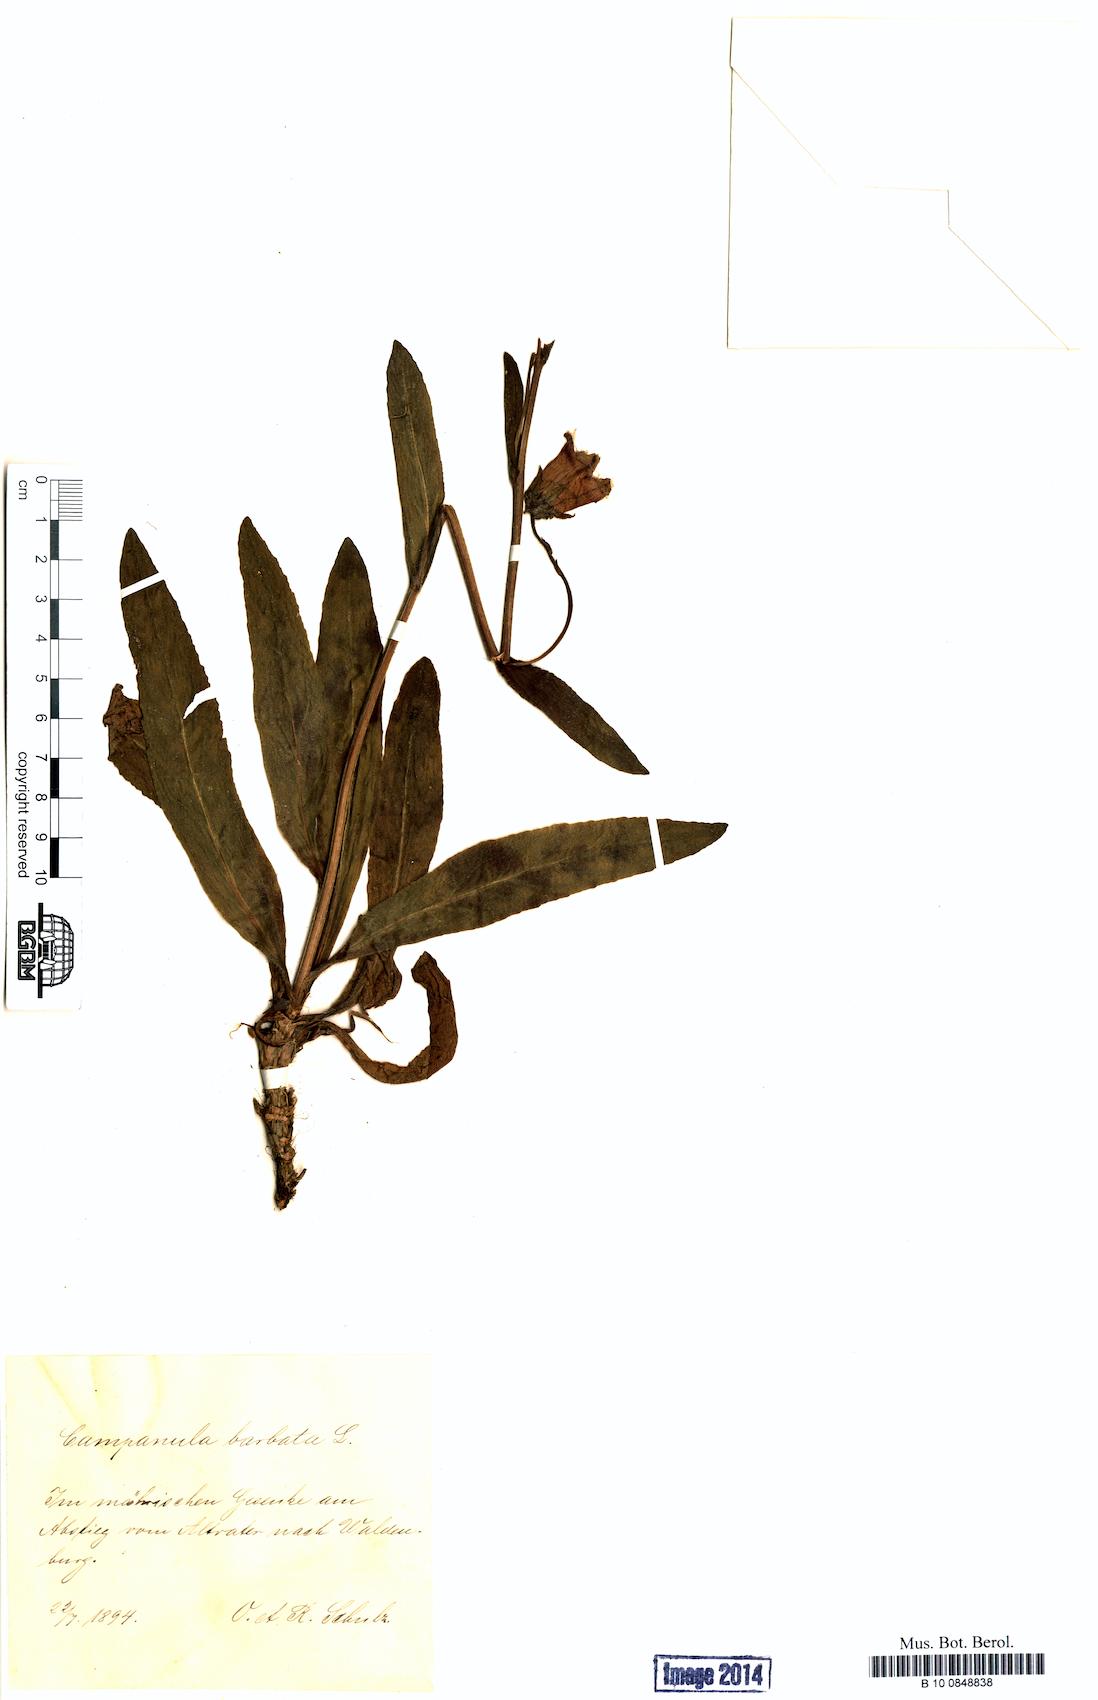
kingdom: Plantae
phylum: Tracheophyta
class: Magnoliopsida
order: Asterales
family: Campanulaceae
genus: Campanula
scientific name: Campanula barbata
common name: Bearded bellflower
